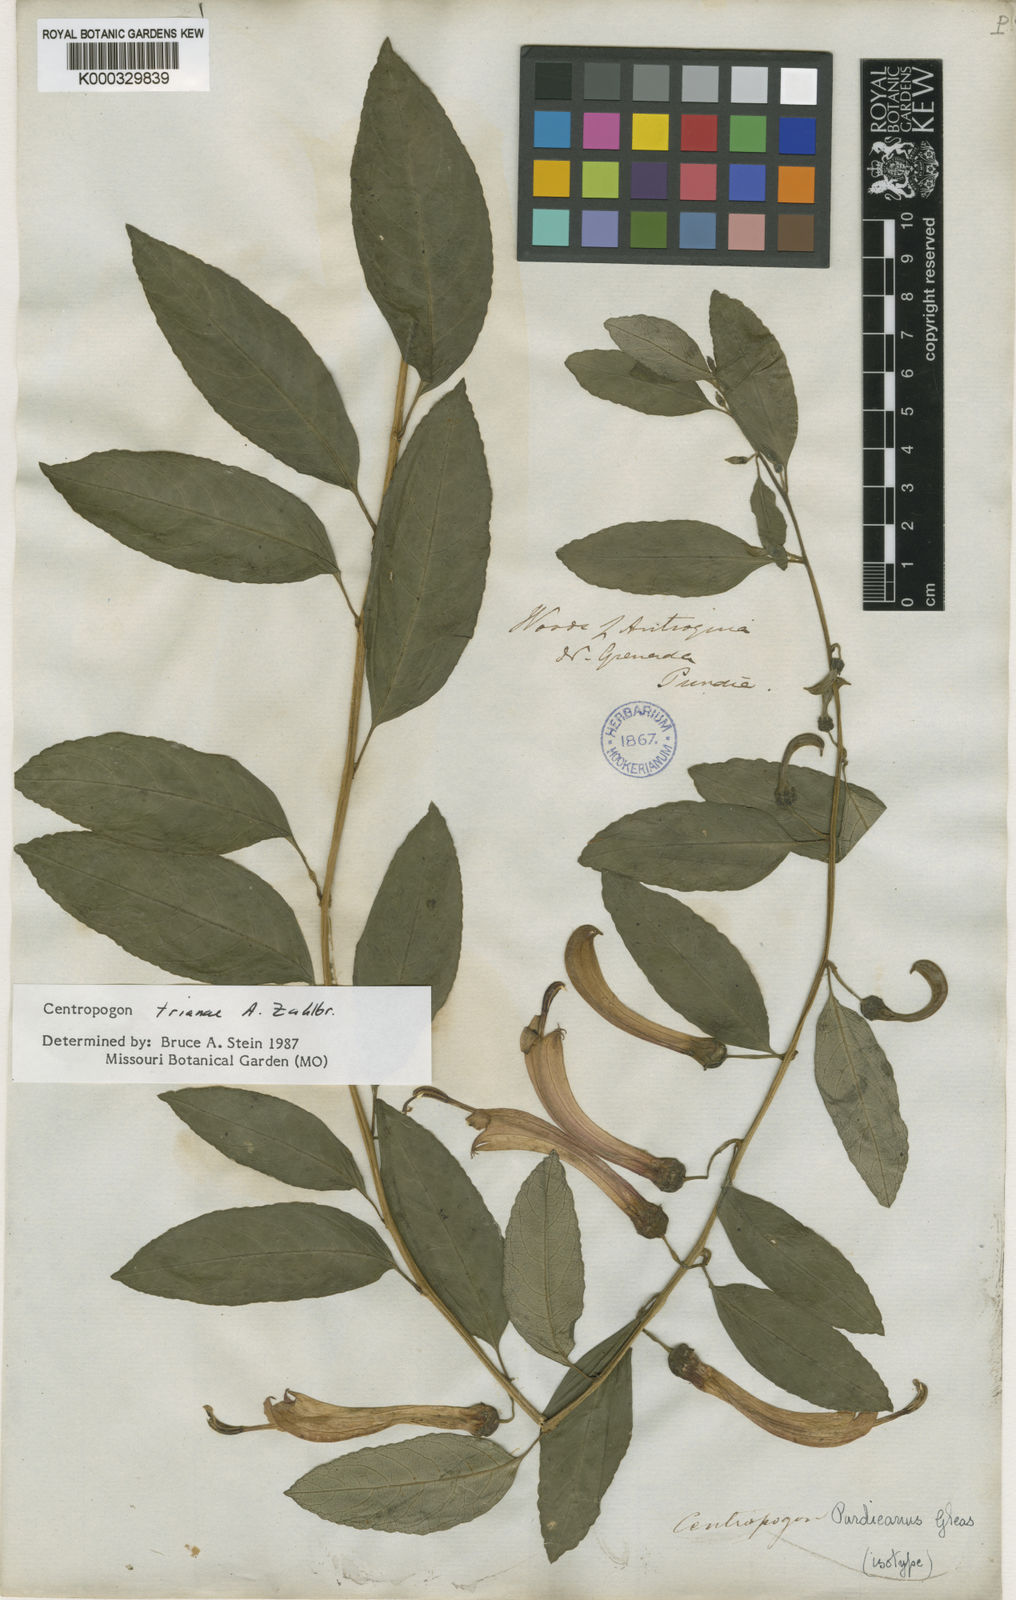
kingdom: Plantae
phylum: Tracheophyta
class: Magnoliopsida
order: Asterales
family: Campanulaceae
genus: Centropogon
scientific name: Centropogon trianae
